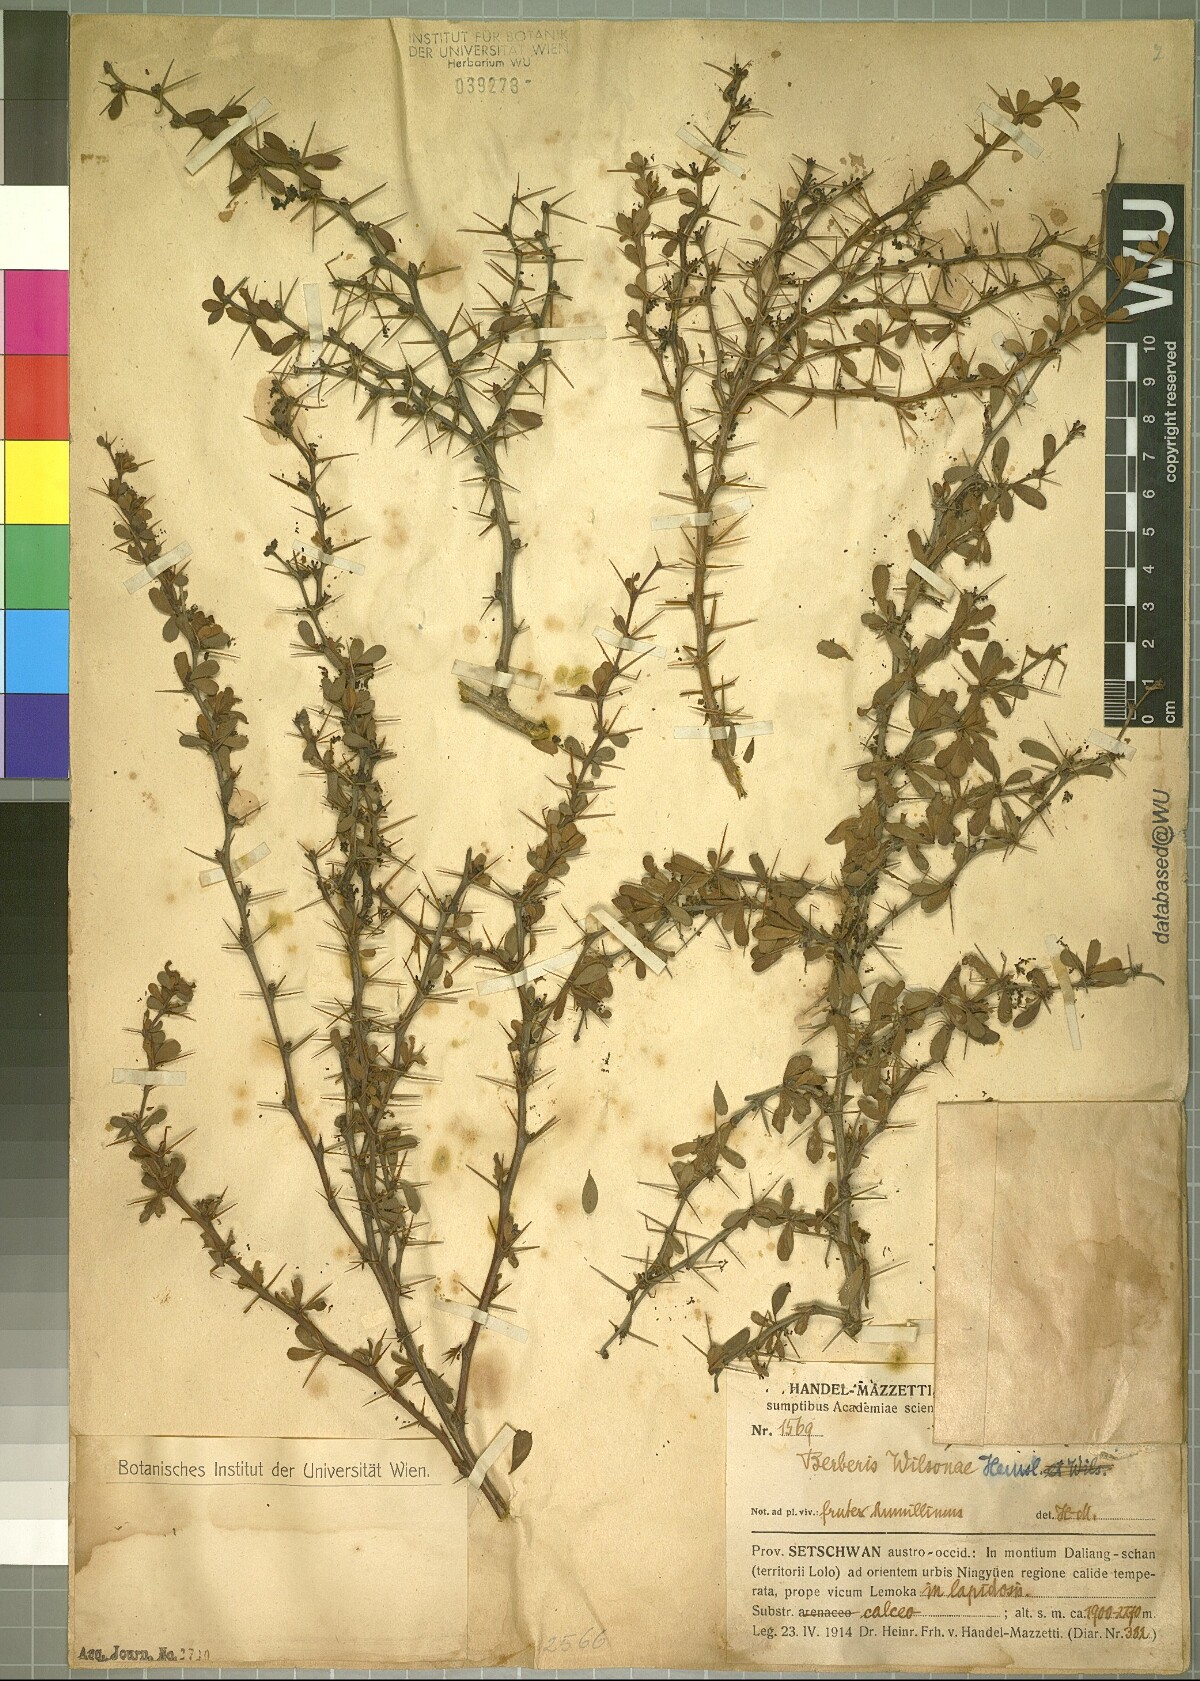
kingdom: Plantae
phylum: Tracheophyta
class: Magnoliopsida
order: Ranunculales
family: Berberidaceae
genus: Berberis
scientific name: Berberis wilsonii
